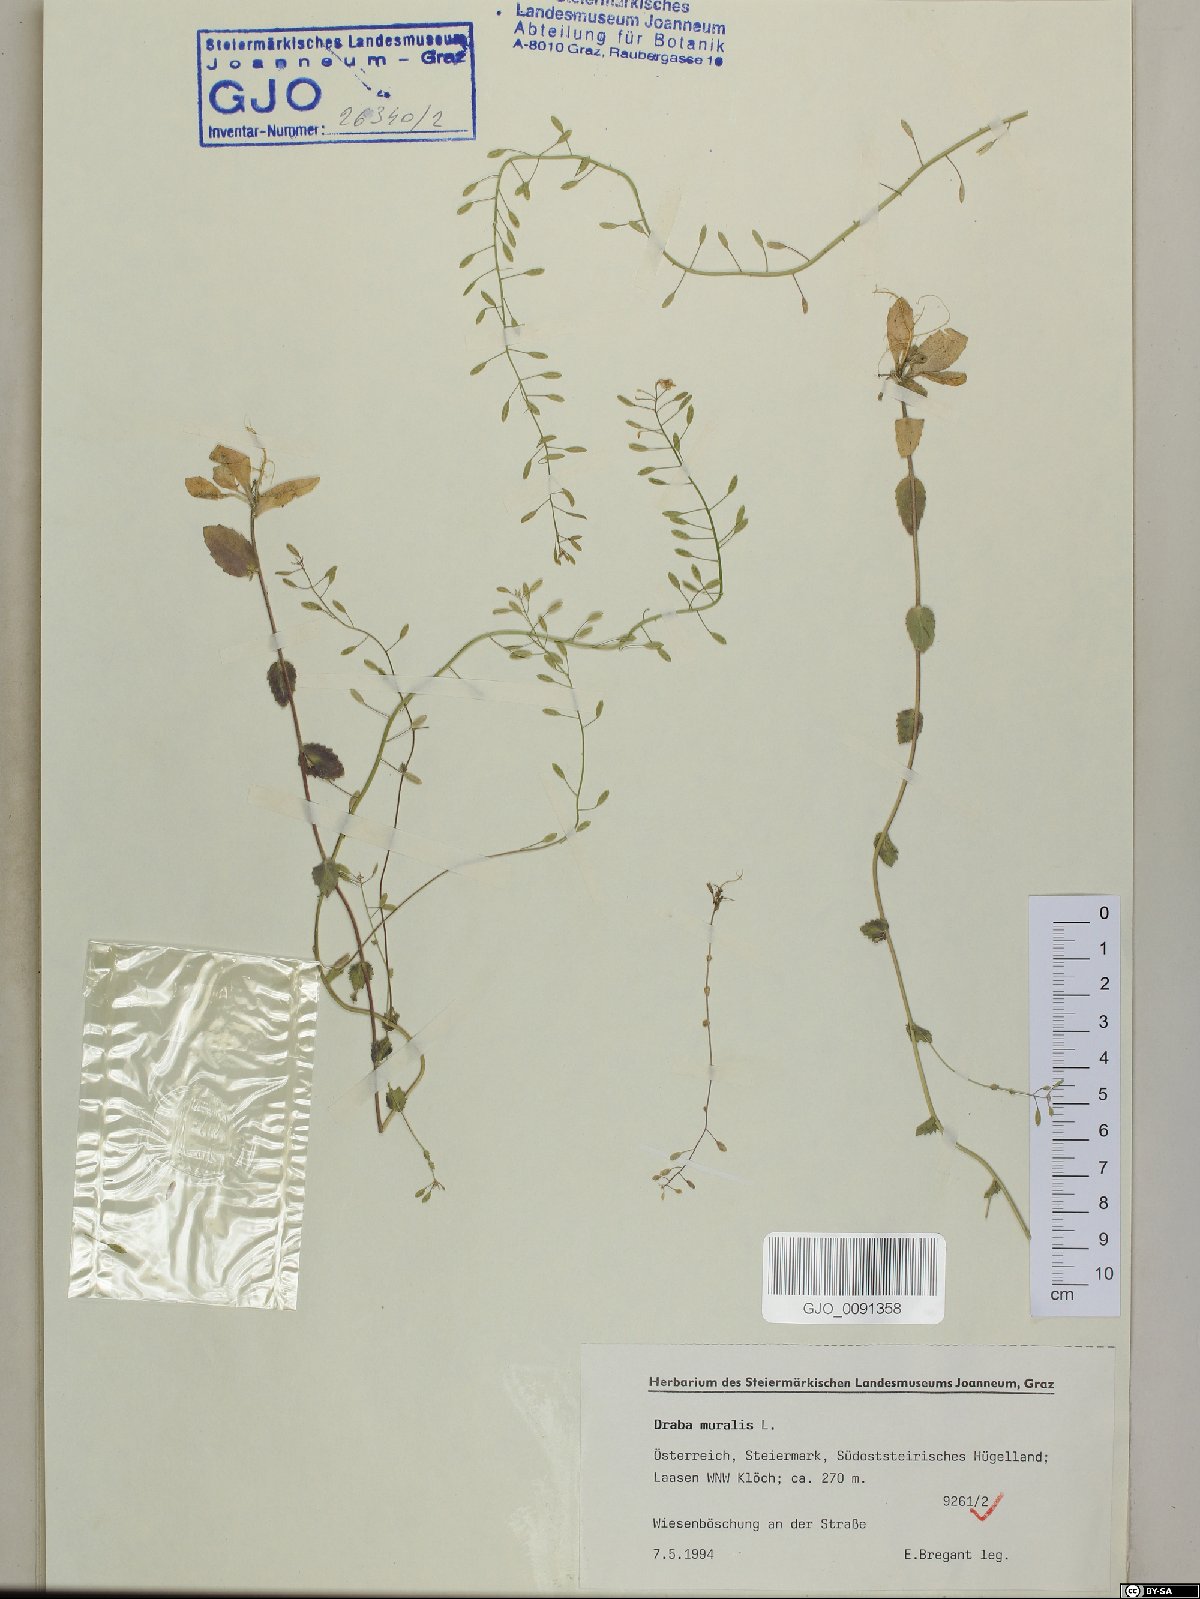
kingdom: Plantae
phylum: Tracheophyta
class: Magnoliopsida
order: Brassicales
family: Brassicaceae
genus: Drabella
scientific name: Drabella muralis
